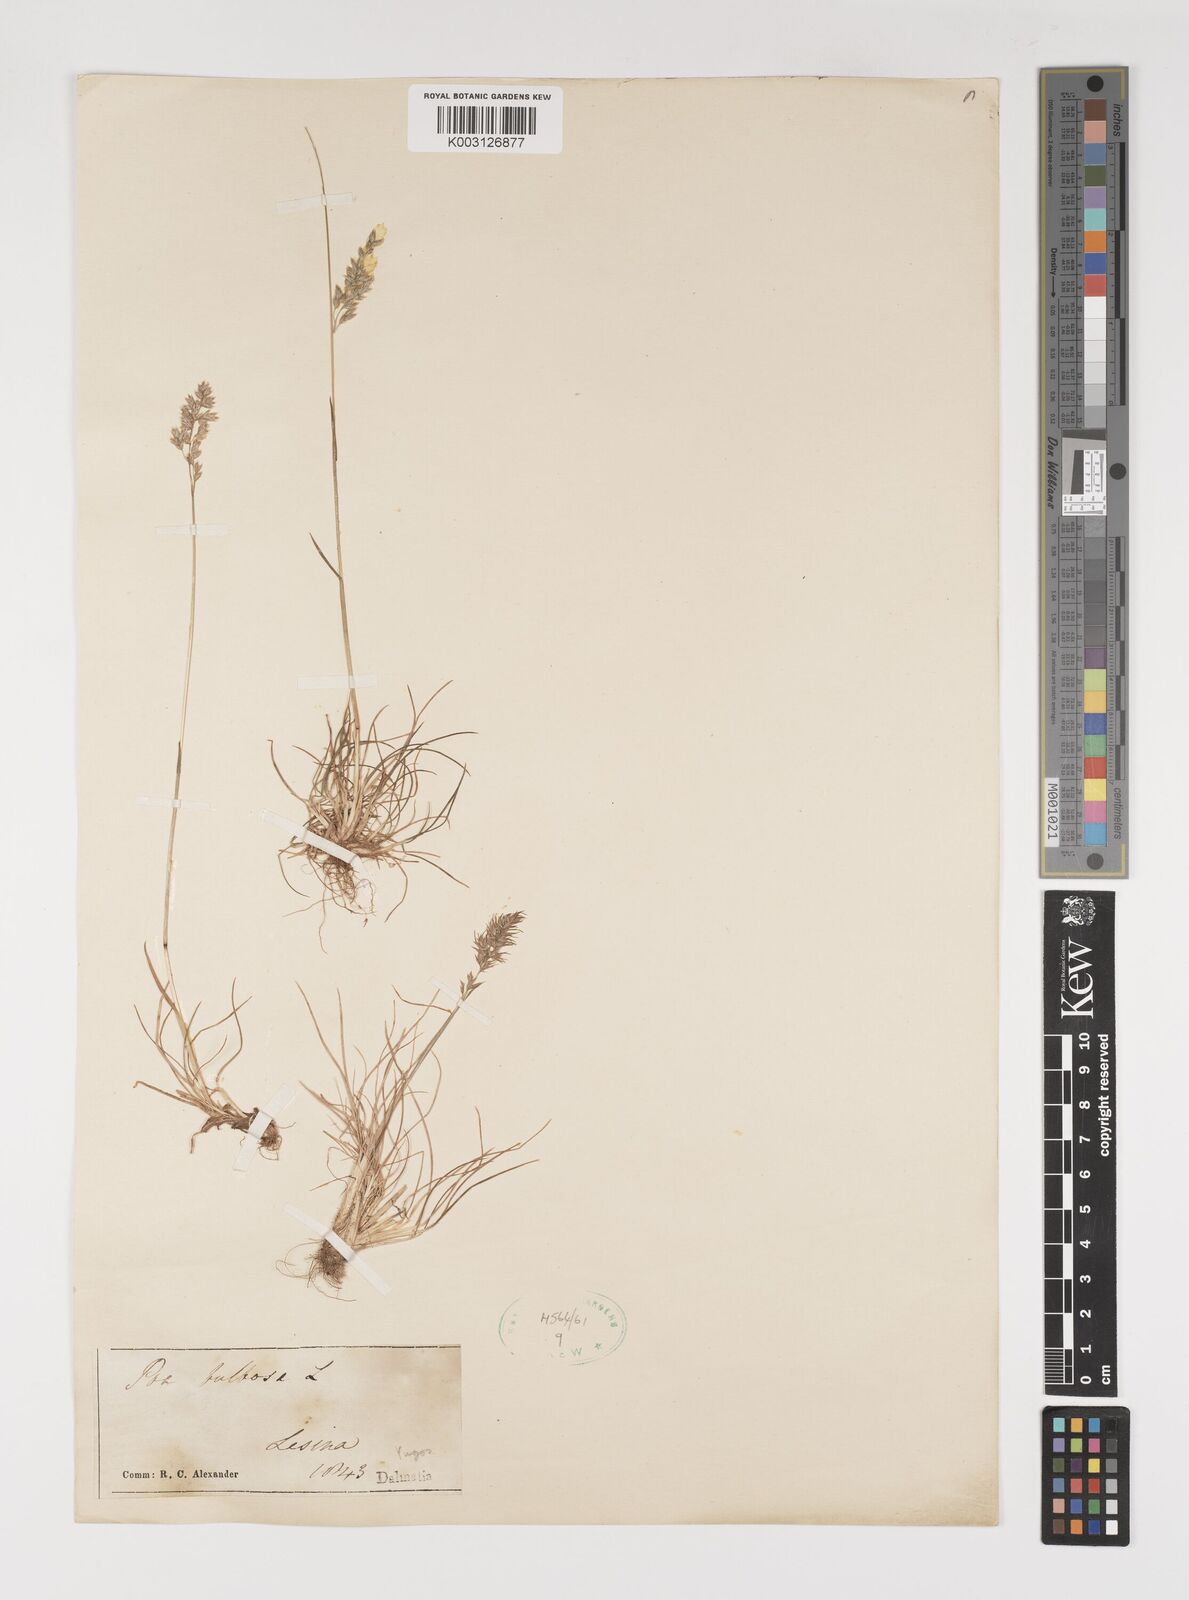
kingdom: Plantae
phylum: Tracheophyta
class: Liliopsida
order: Poales
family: Poaceae
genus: Poa
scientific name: Poa bulbosa
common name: Bulbous bluegrass
